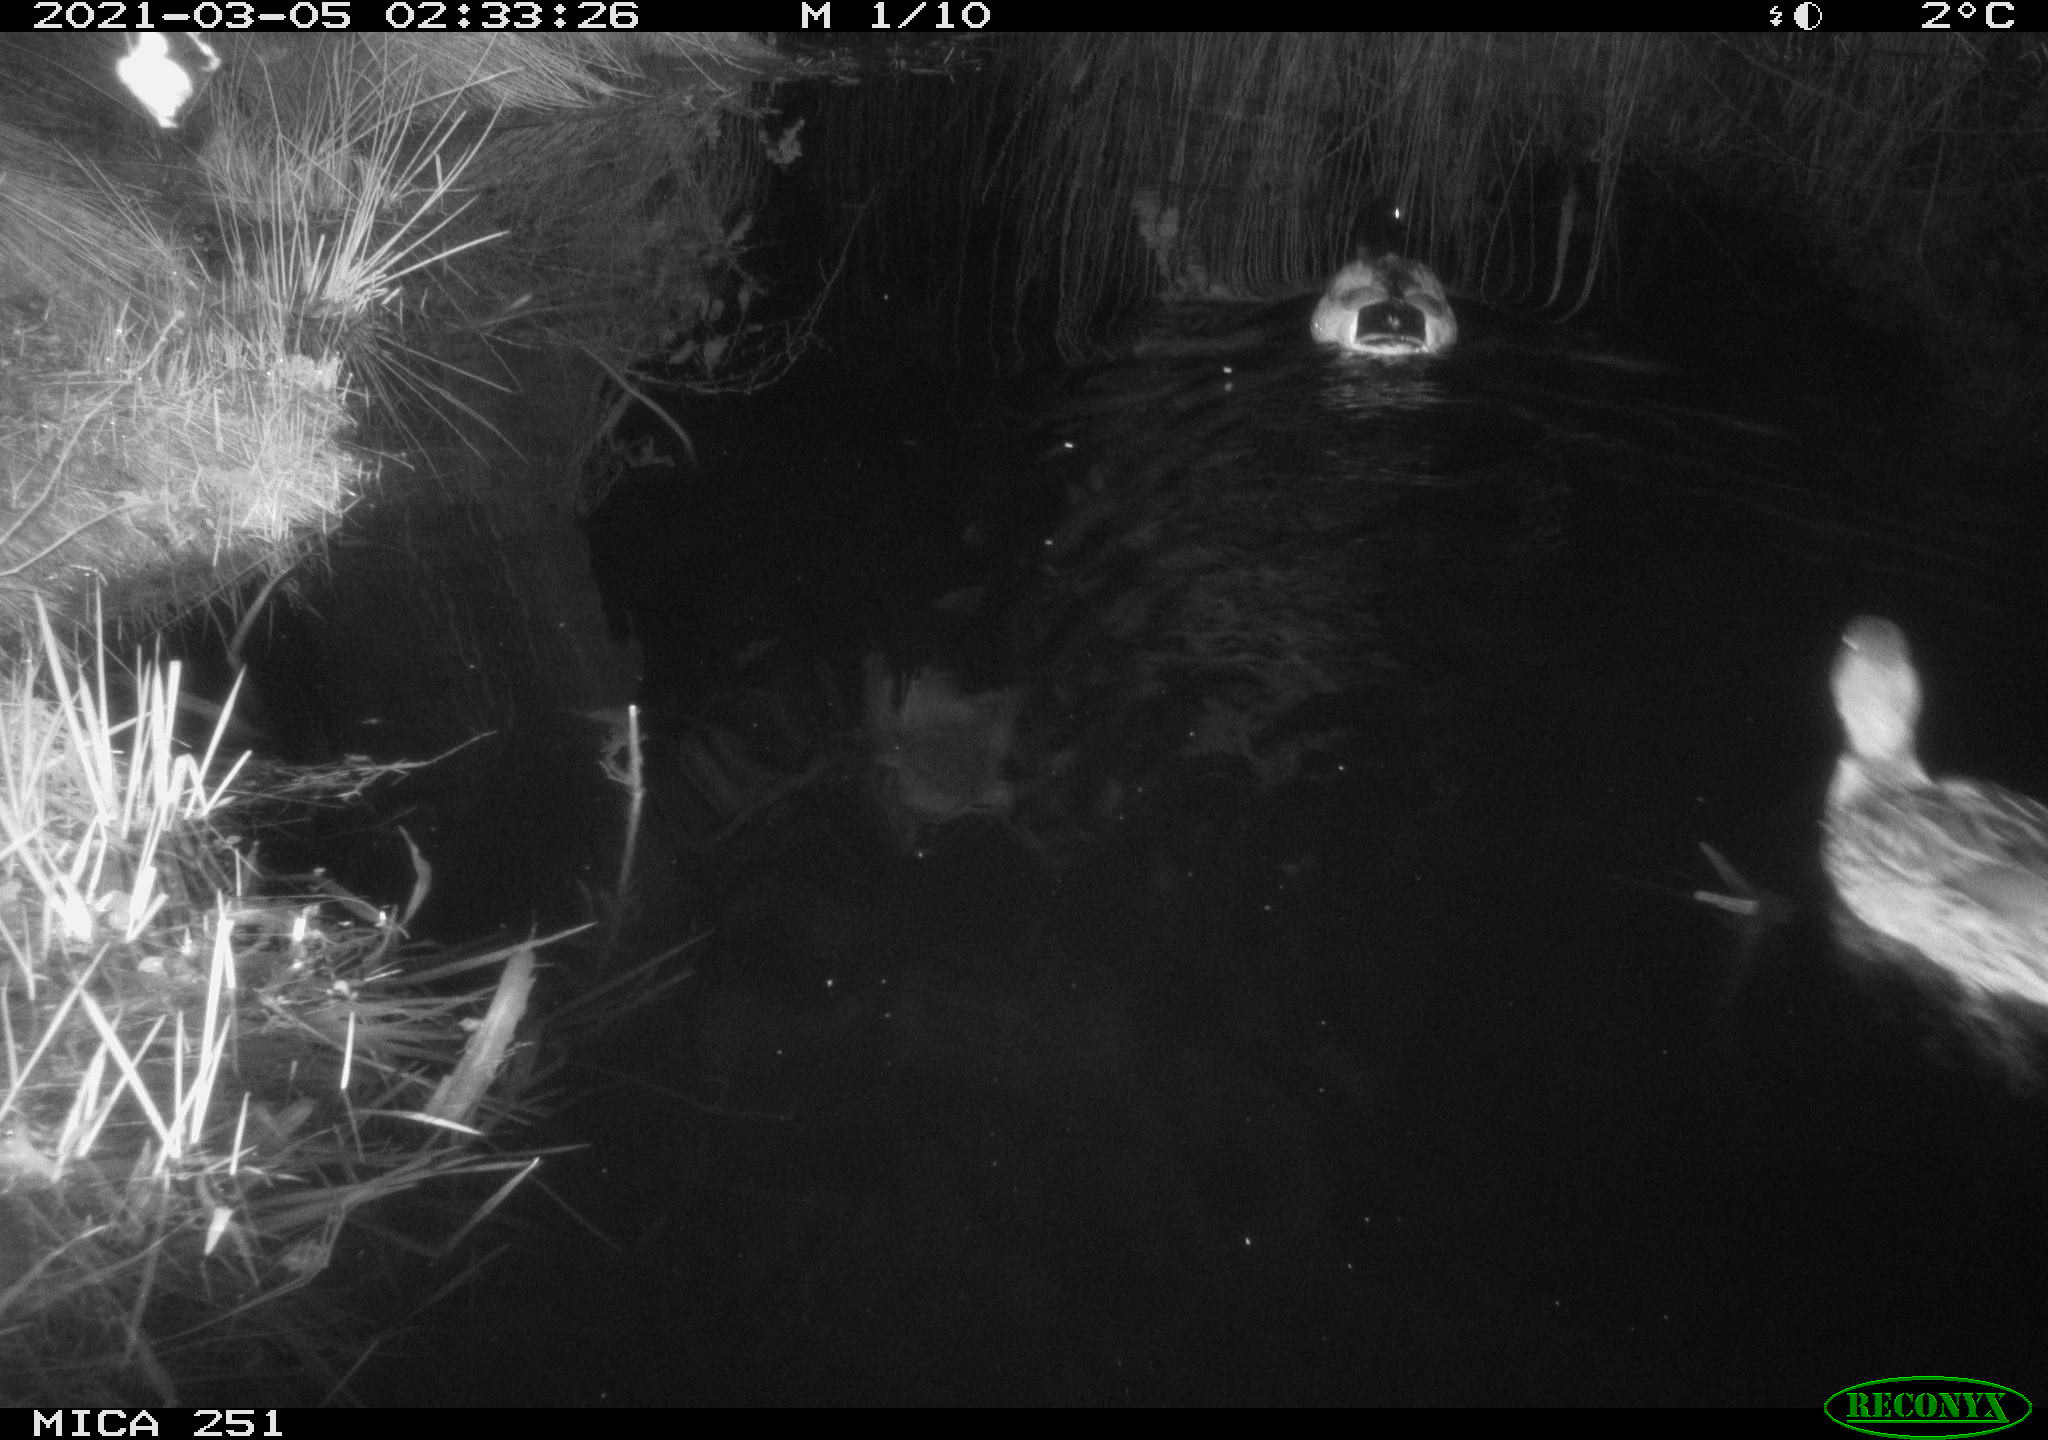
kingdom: Animalia
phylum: Chordata
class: Aves
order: Anseriformes
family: Anatidae
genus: Anas
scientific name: Anas platyrhynchos
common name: Mallard
